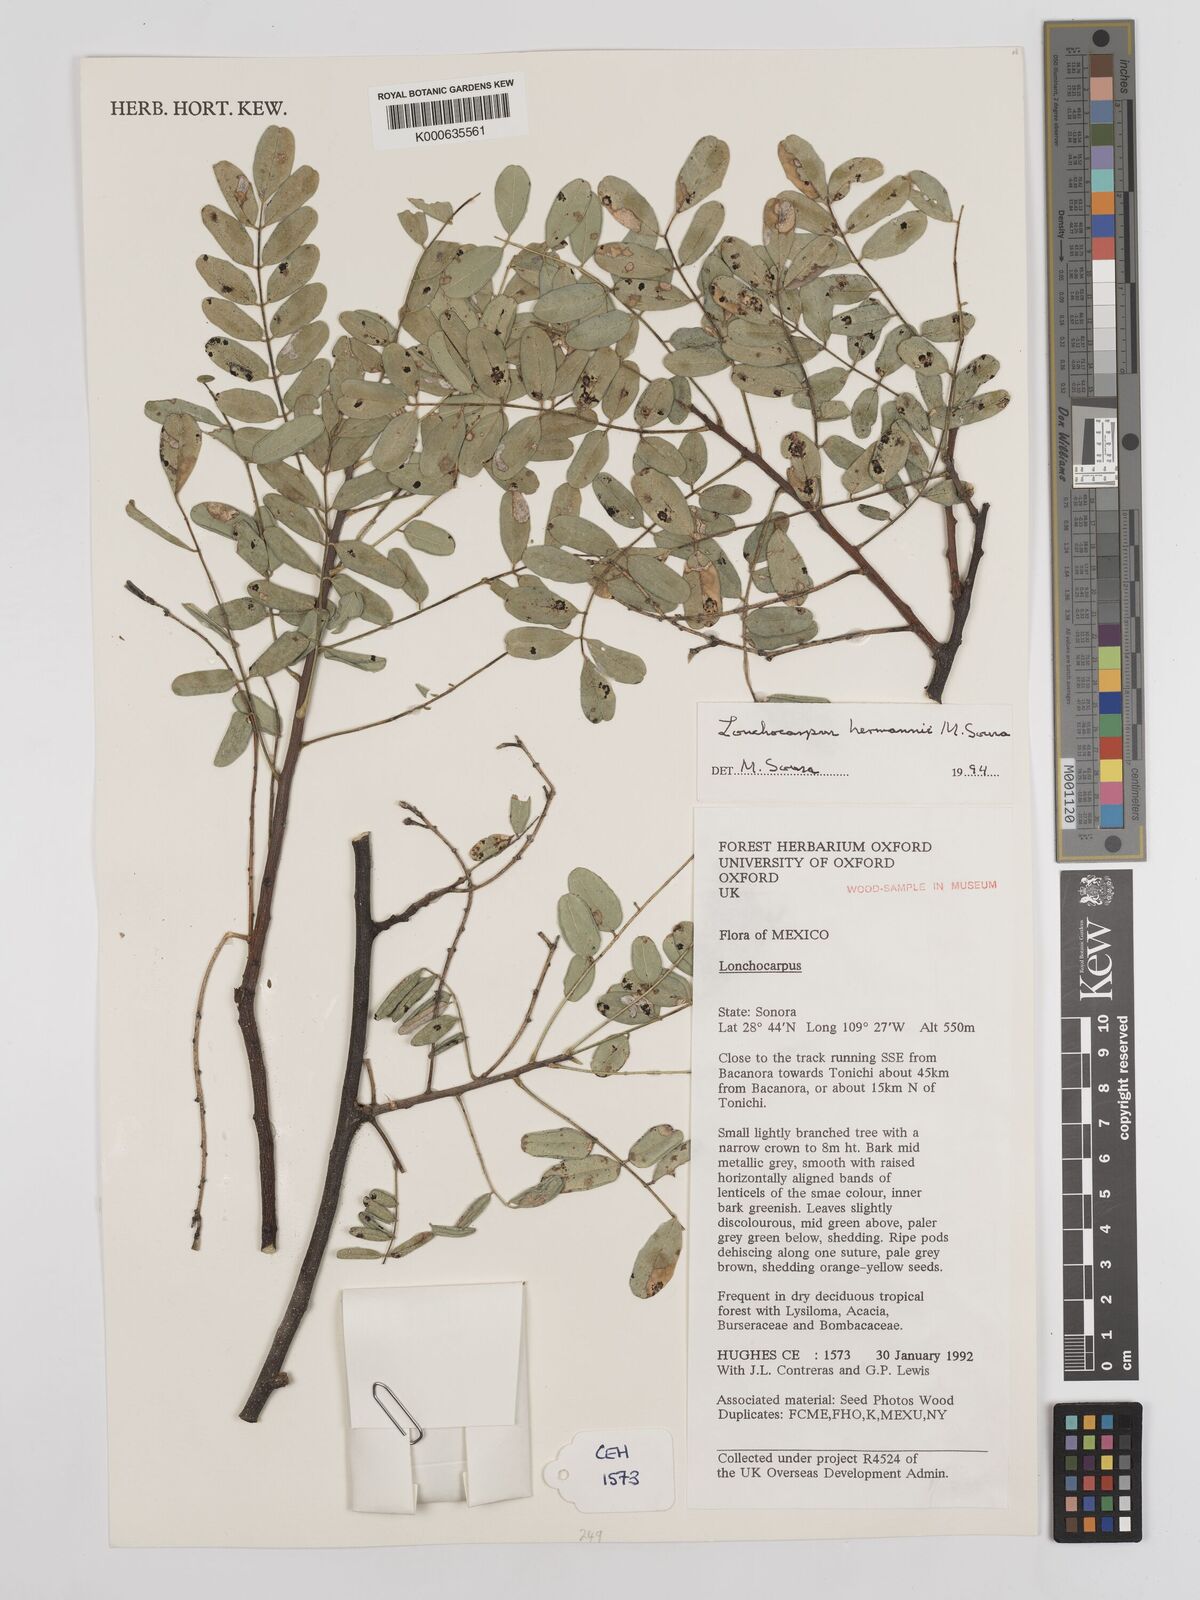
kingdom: Plantae
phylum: Tracheophyta
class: Magnoliopsida
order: Fabales
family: Fabaceae
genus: Lonchocarpus
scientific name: Lonchocarpus hermannii
